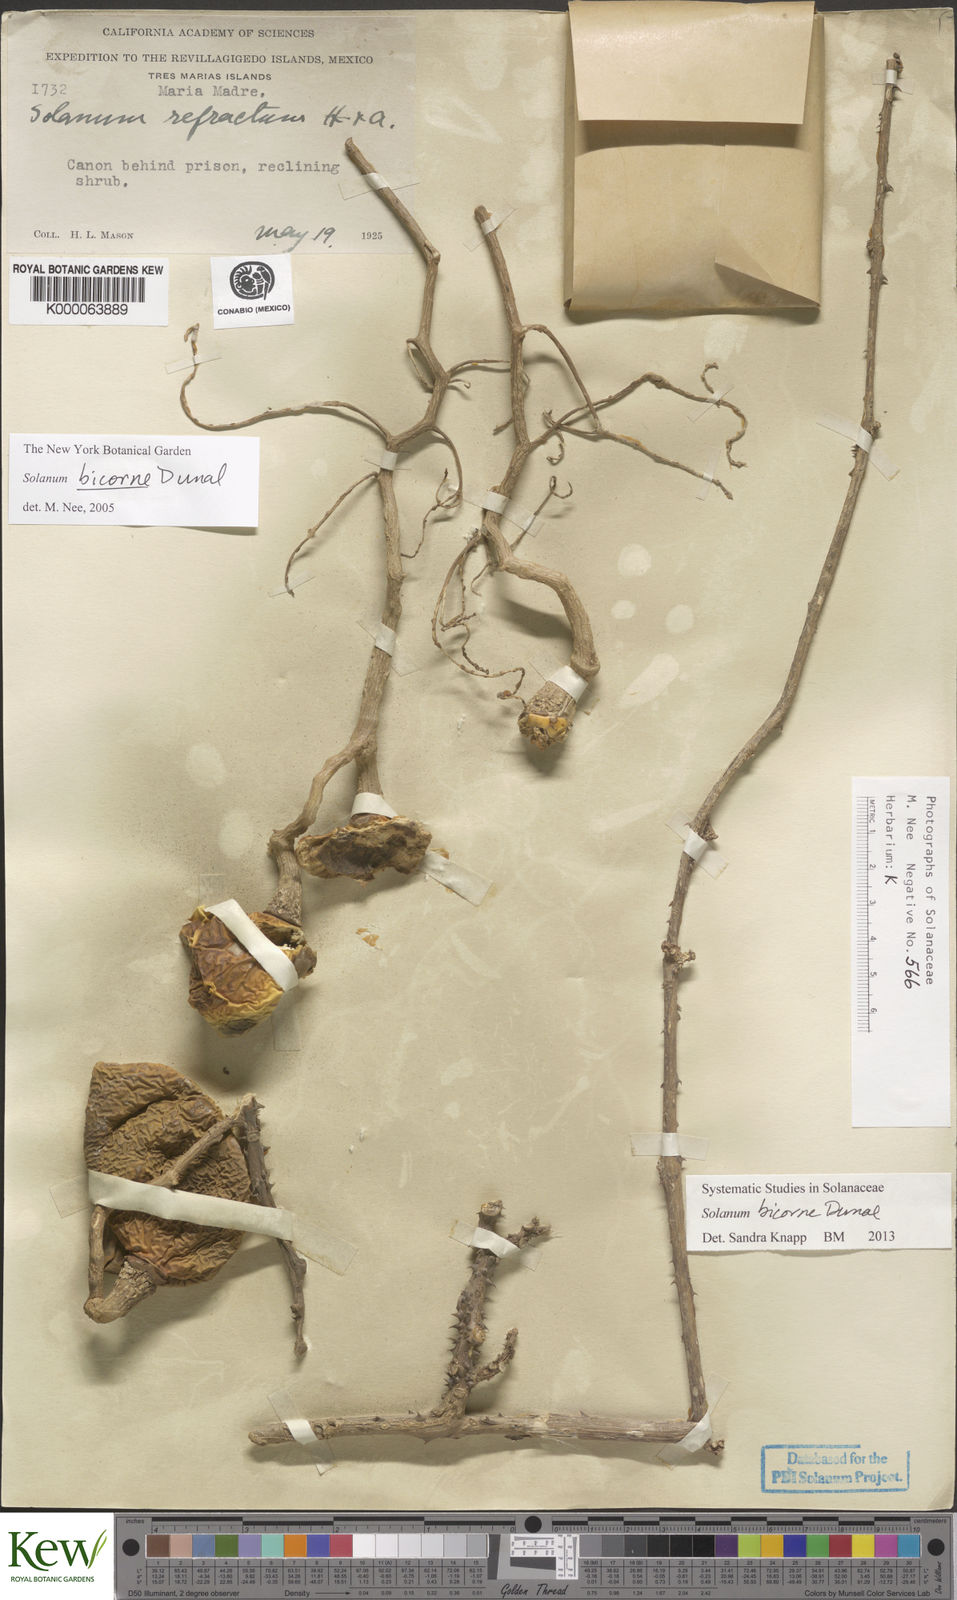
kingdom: Plantae
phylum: Tracheophyta
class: Magnoliopsida
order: Solanales
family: Solanaceae
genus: Solanum
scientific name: Solanum refractum
